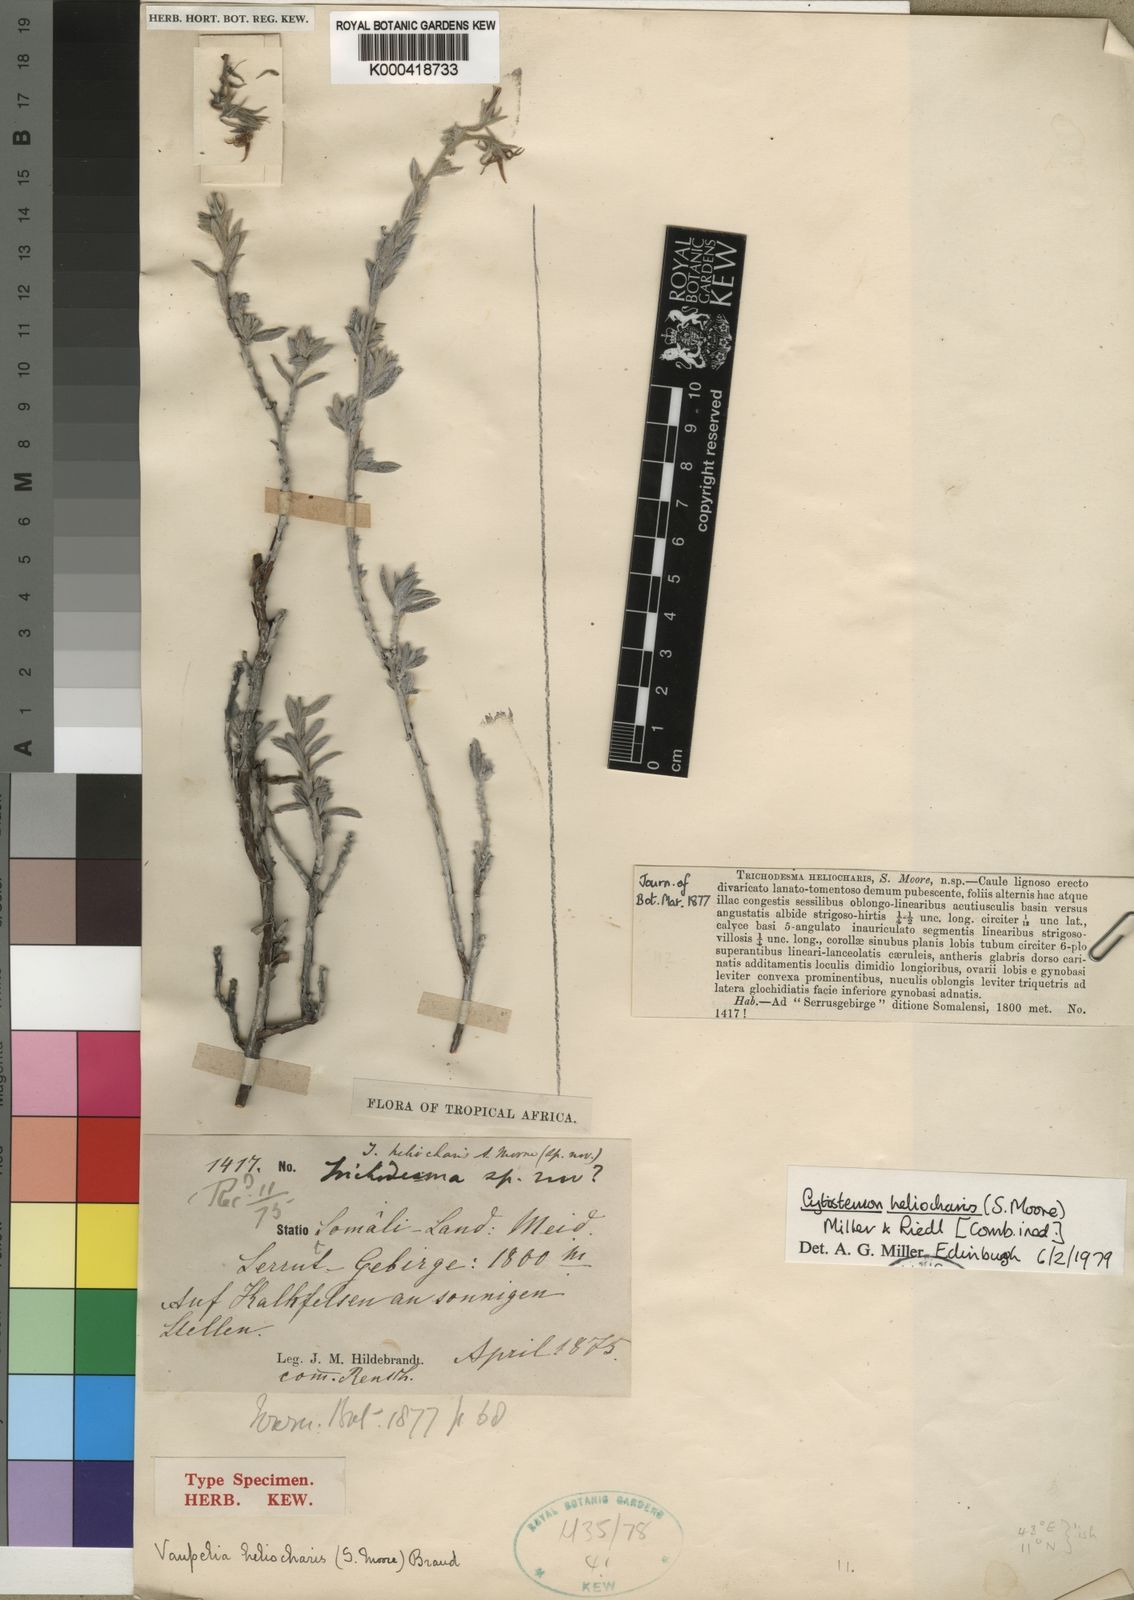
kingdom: Plantae
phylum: Tracheophyta
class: Magnoliopsida
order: Boraginales
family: Boraginaceae
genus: Cystostemon
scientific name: Cystostemon heliocharis
